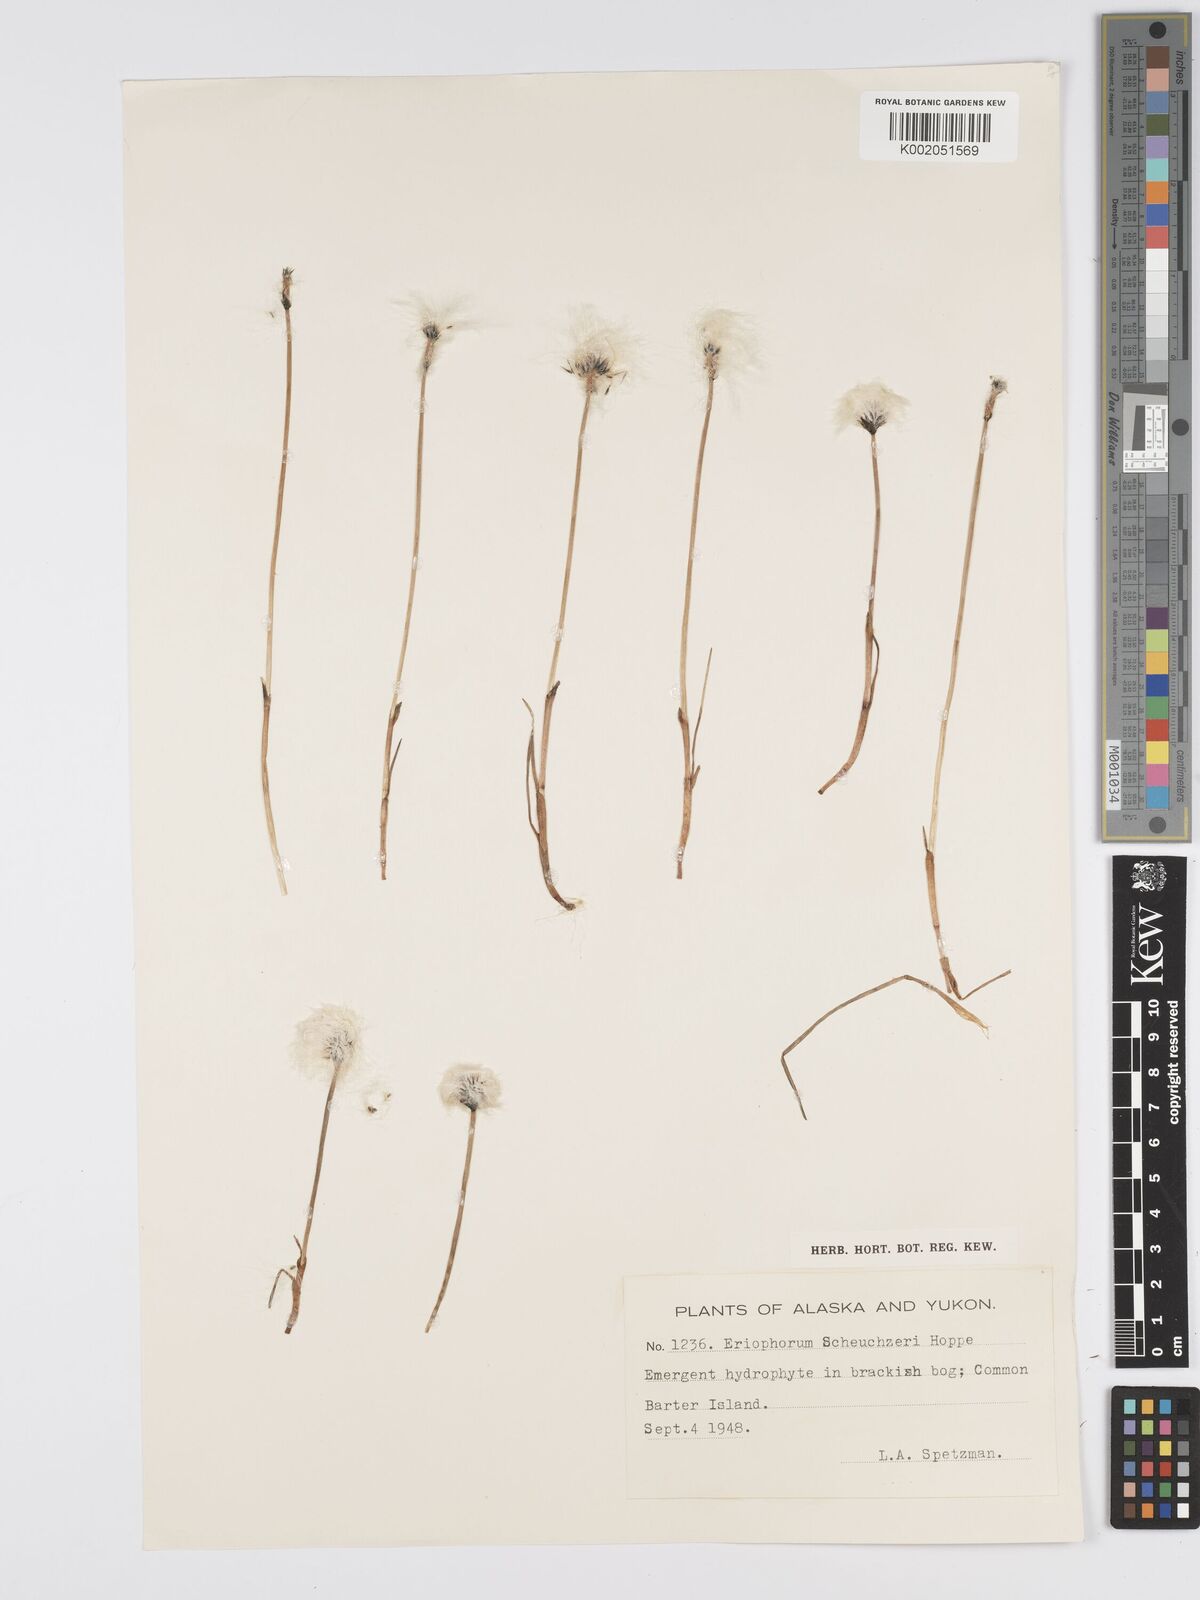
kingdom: Plantae
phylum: Tracheophyta
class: Liliopsida
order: Poales
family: Cyperaceae
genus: Eriophorum
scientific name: Eriophorum scheuchzeri
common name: Scheuchzer's cottongrass
